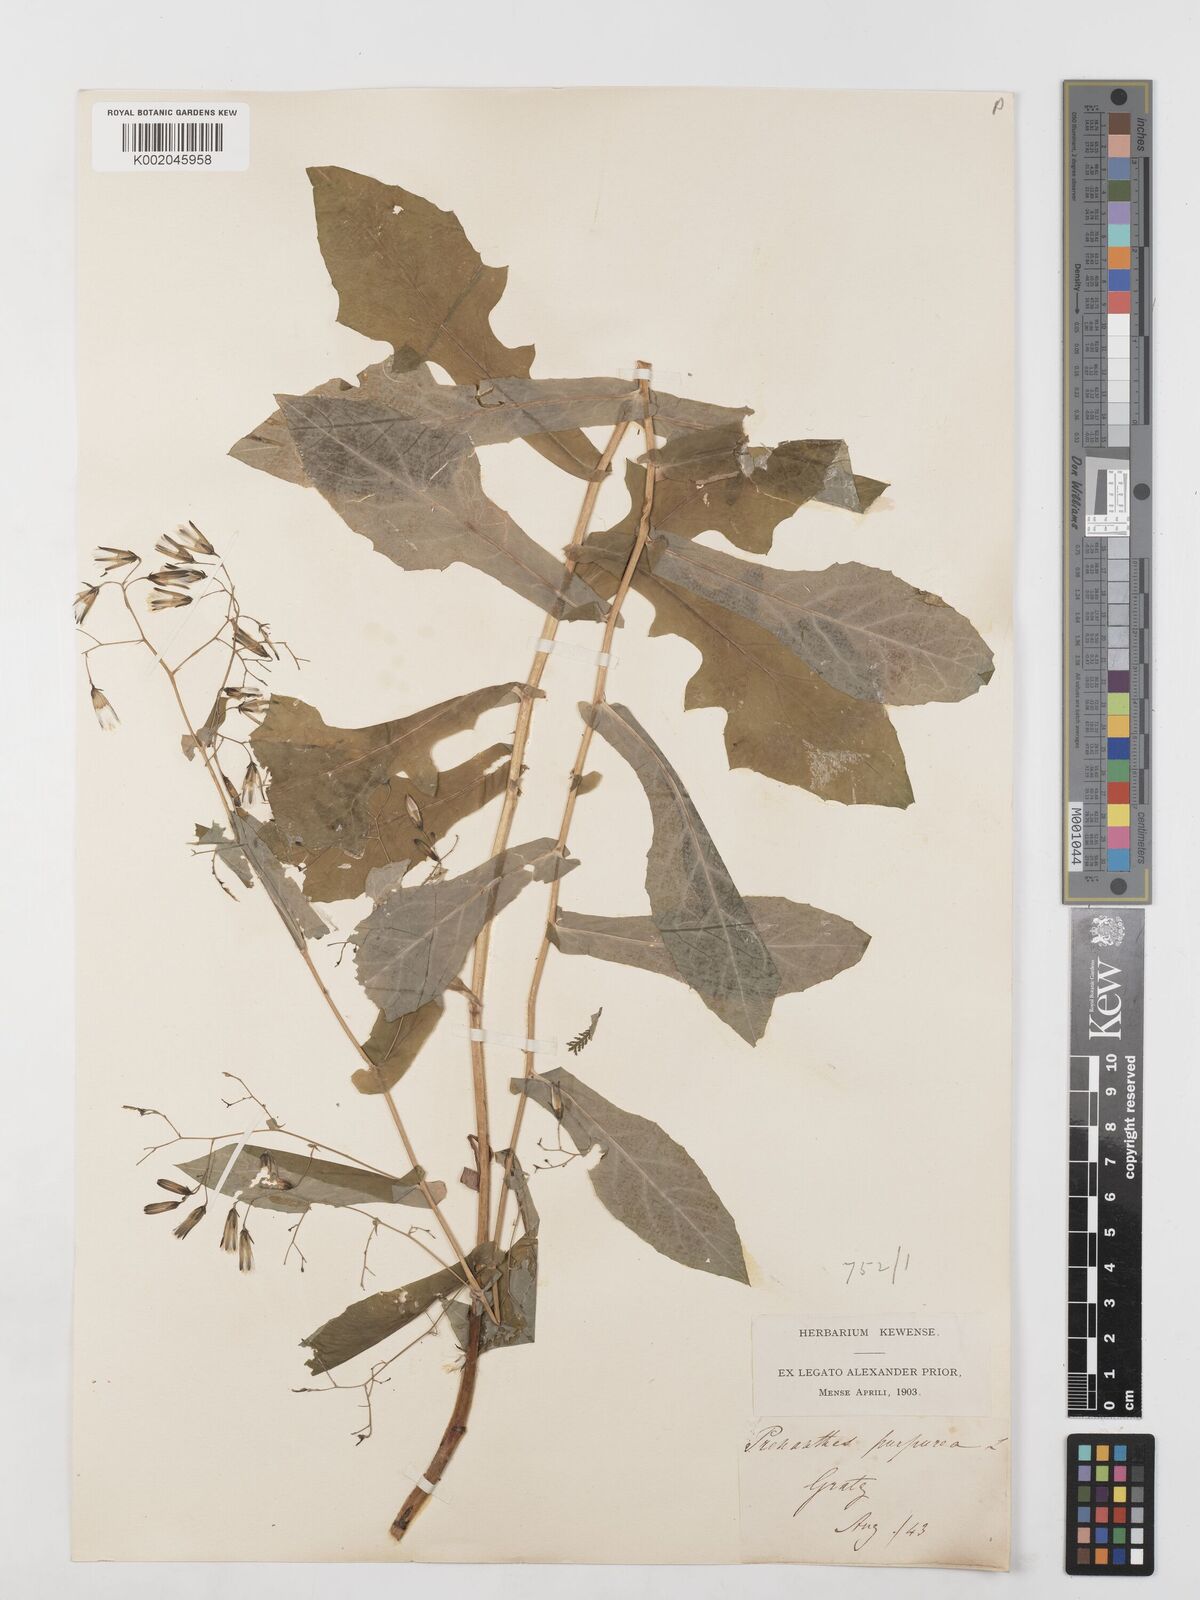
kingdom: Plantae
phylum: Tracheophyta
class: Magnoliopsida
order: Asterales
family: Asteraceae
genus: Prenanthes
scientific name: Prenanthes purpurea
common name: Purple lettuce
